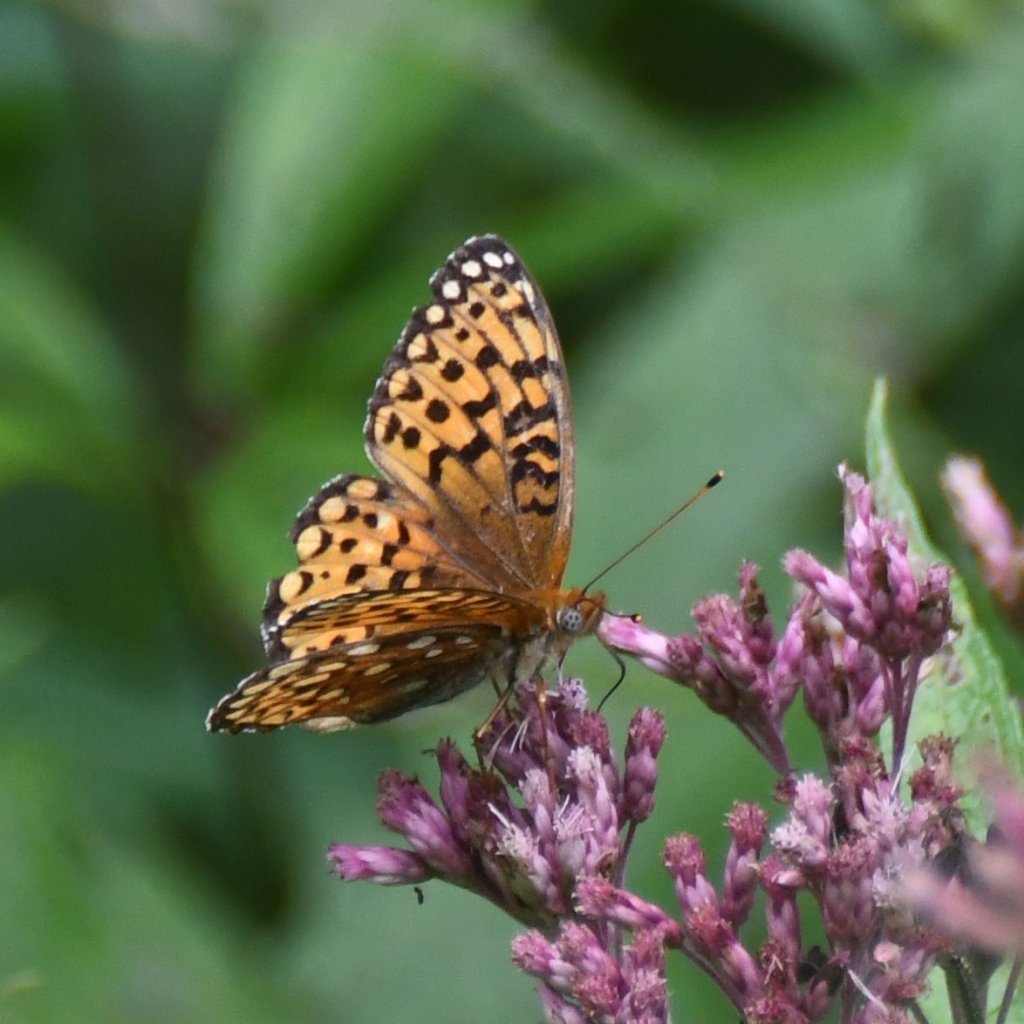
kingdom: Animalia
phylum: Arthropoda
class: Insecta
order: Lepidoptera
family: Nymphalidae
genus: Speyeria
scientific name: Speyeria atlantis
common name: Atlantis Fritillary
